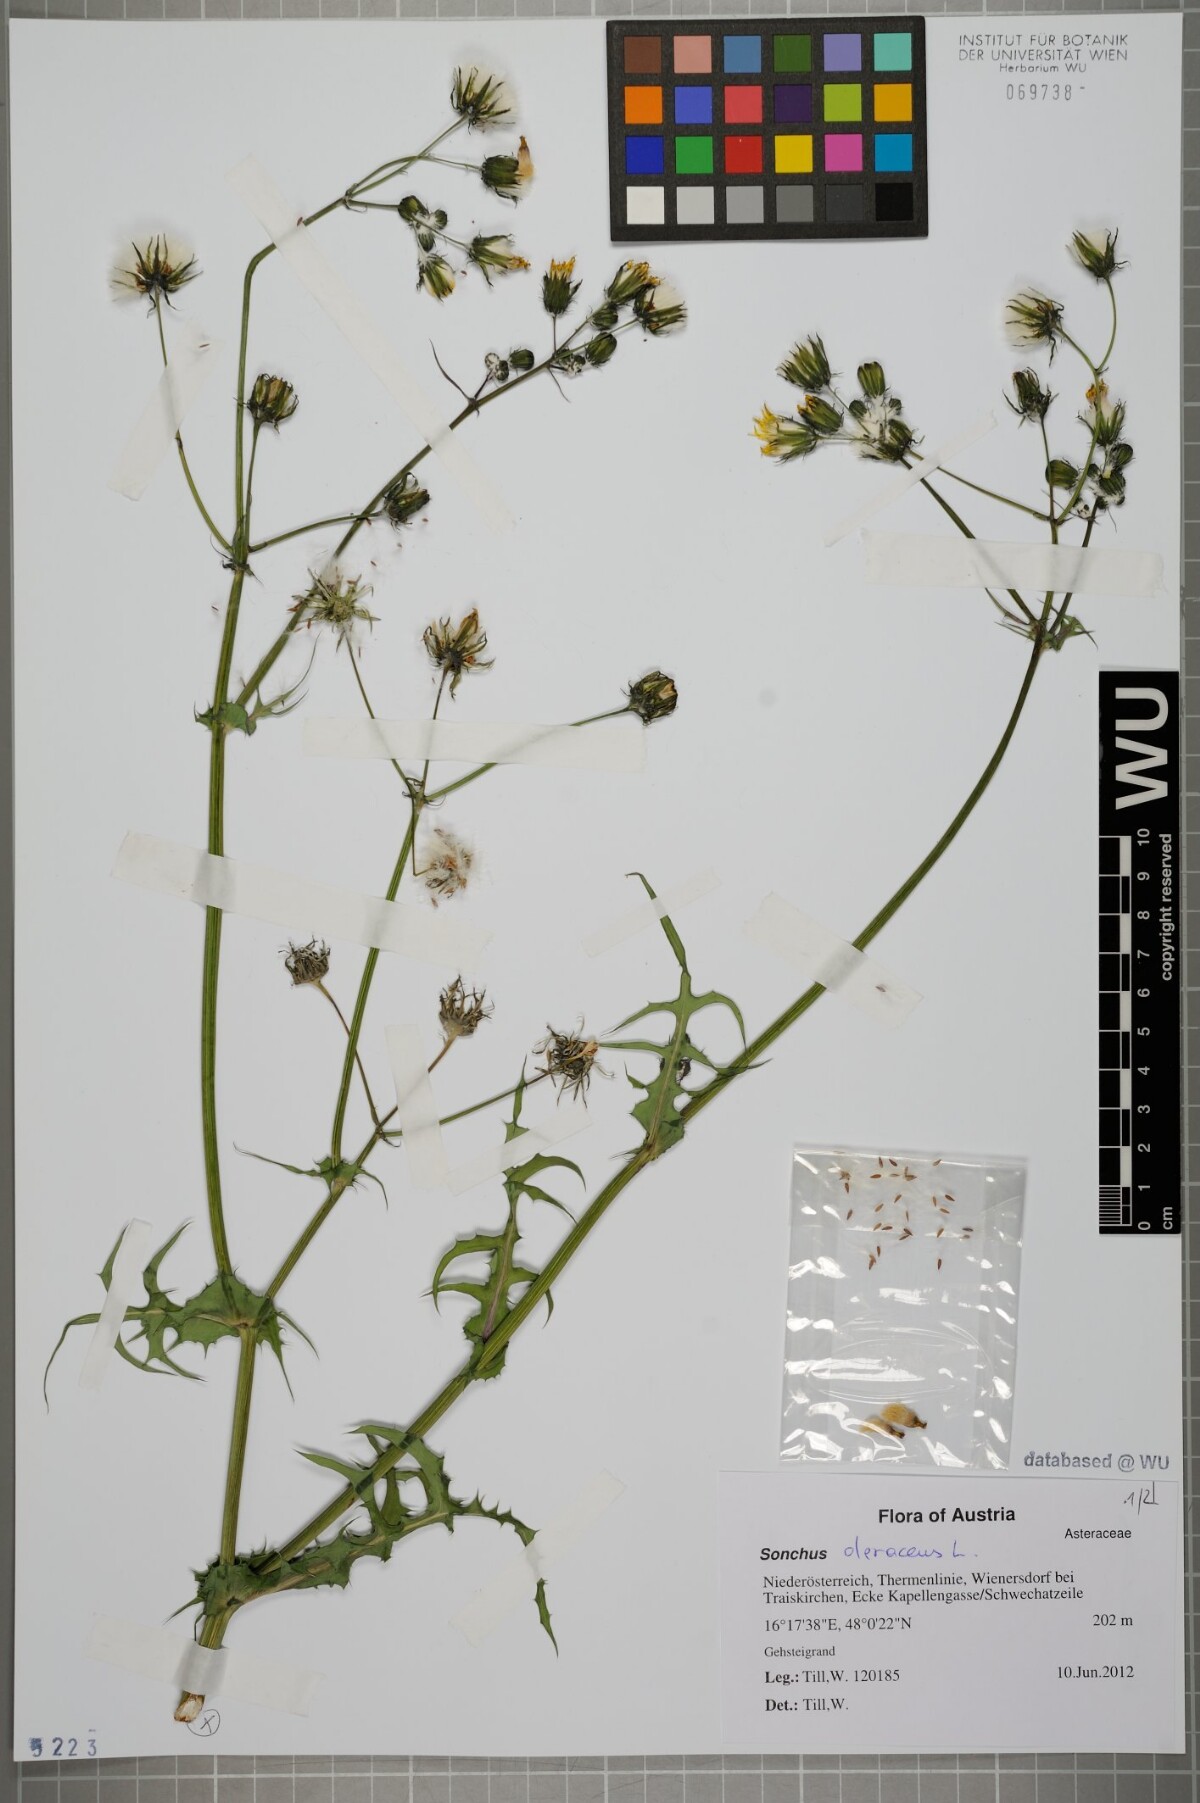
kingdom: Plantae
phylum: Tracheophyta
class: Magnoliopsida
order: Asterales
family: Asteraceae
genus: Sonchus
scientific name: Sonchus oleraceus
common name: Common sowthistle
